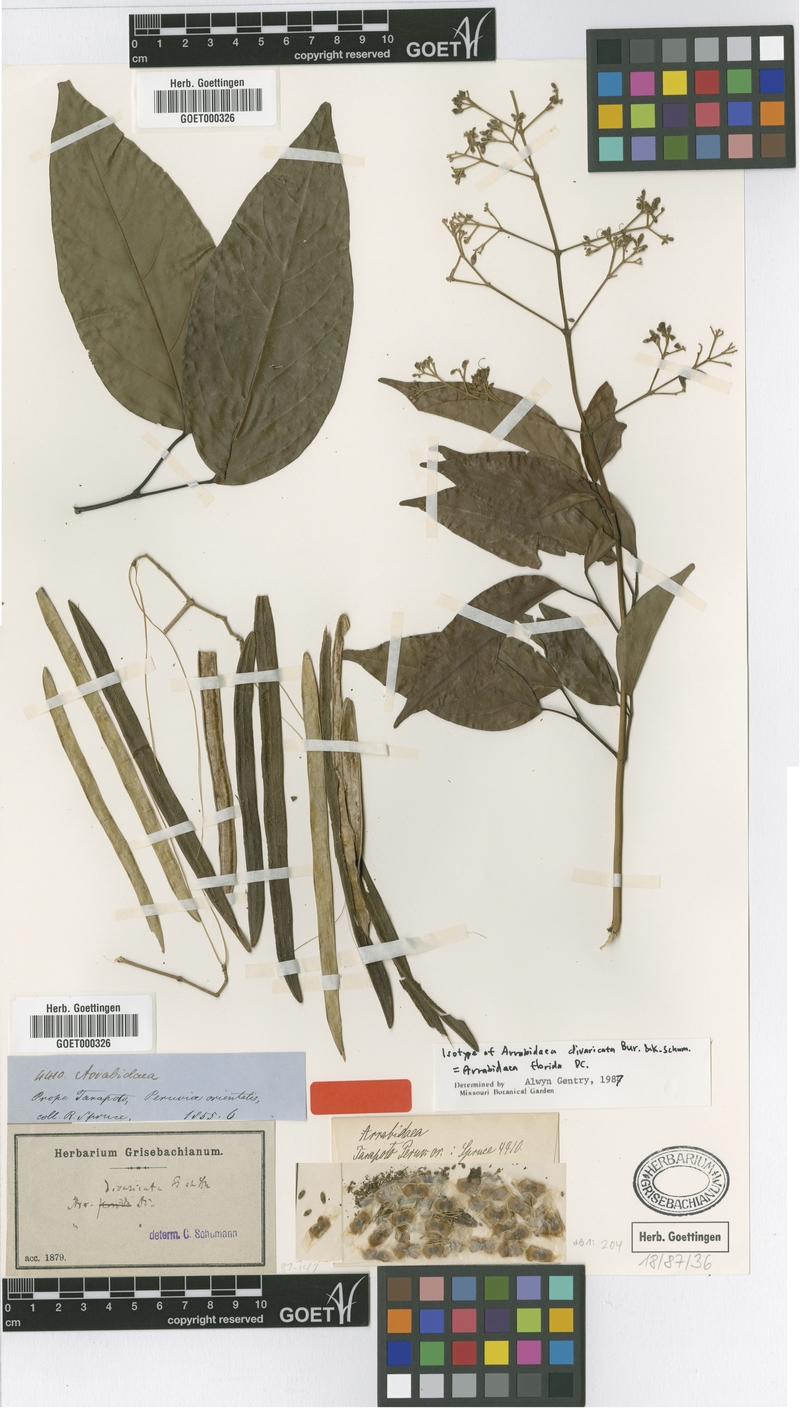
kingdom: Plantae
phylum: Tracheophyta
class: Magnoliopsida
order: Lamiales
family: Bignoniaceae
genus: Fridericia
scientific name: Fridericia florida
